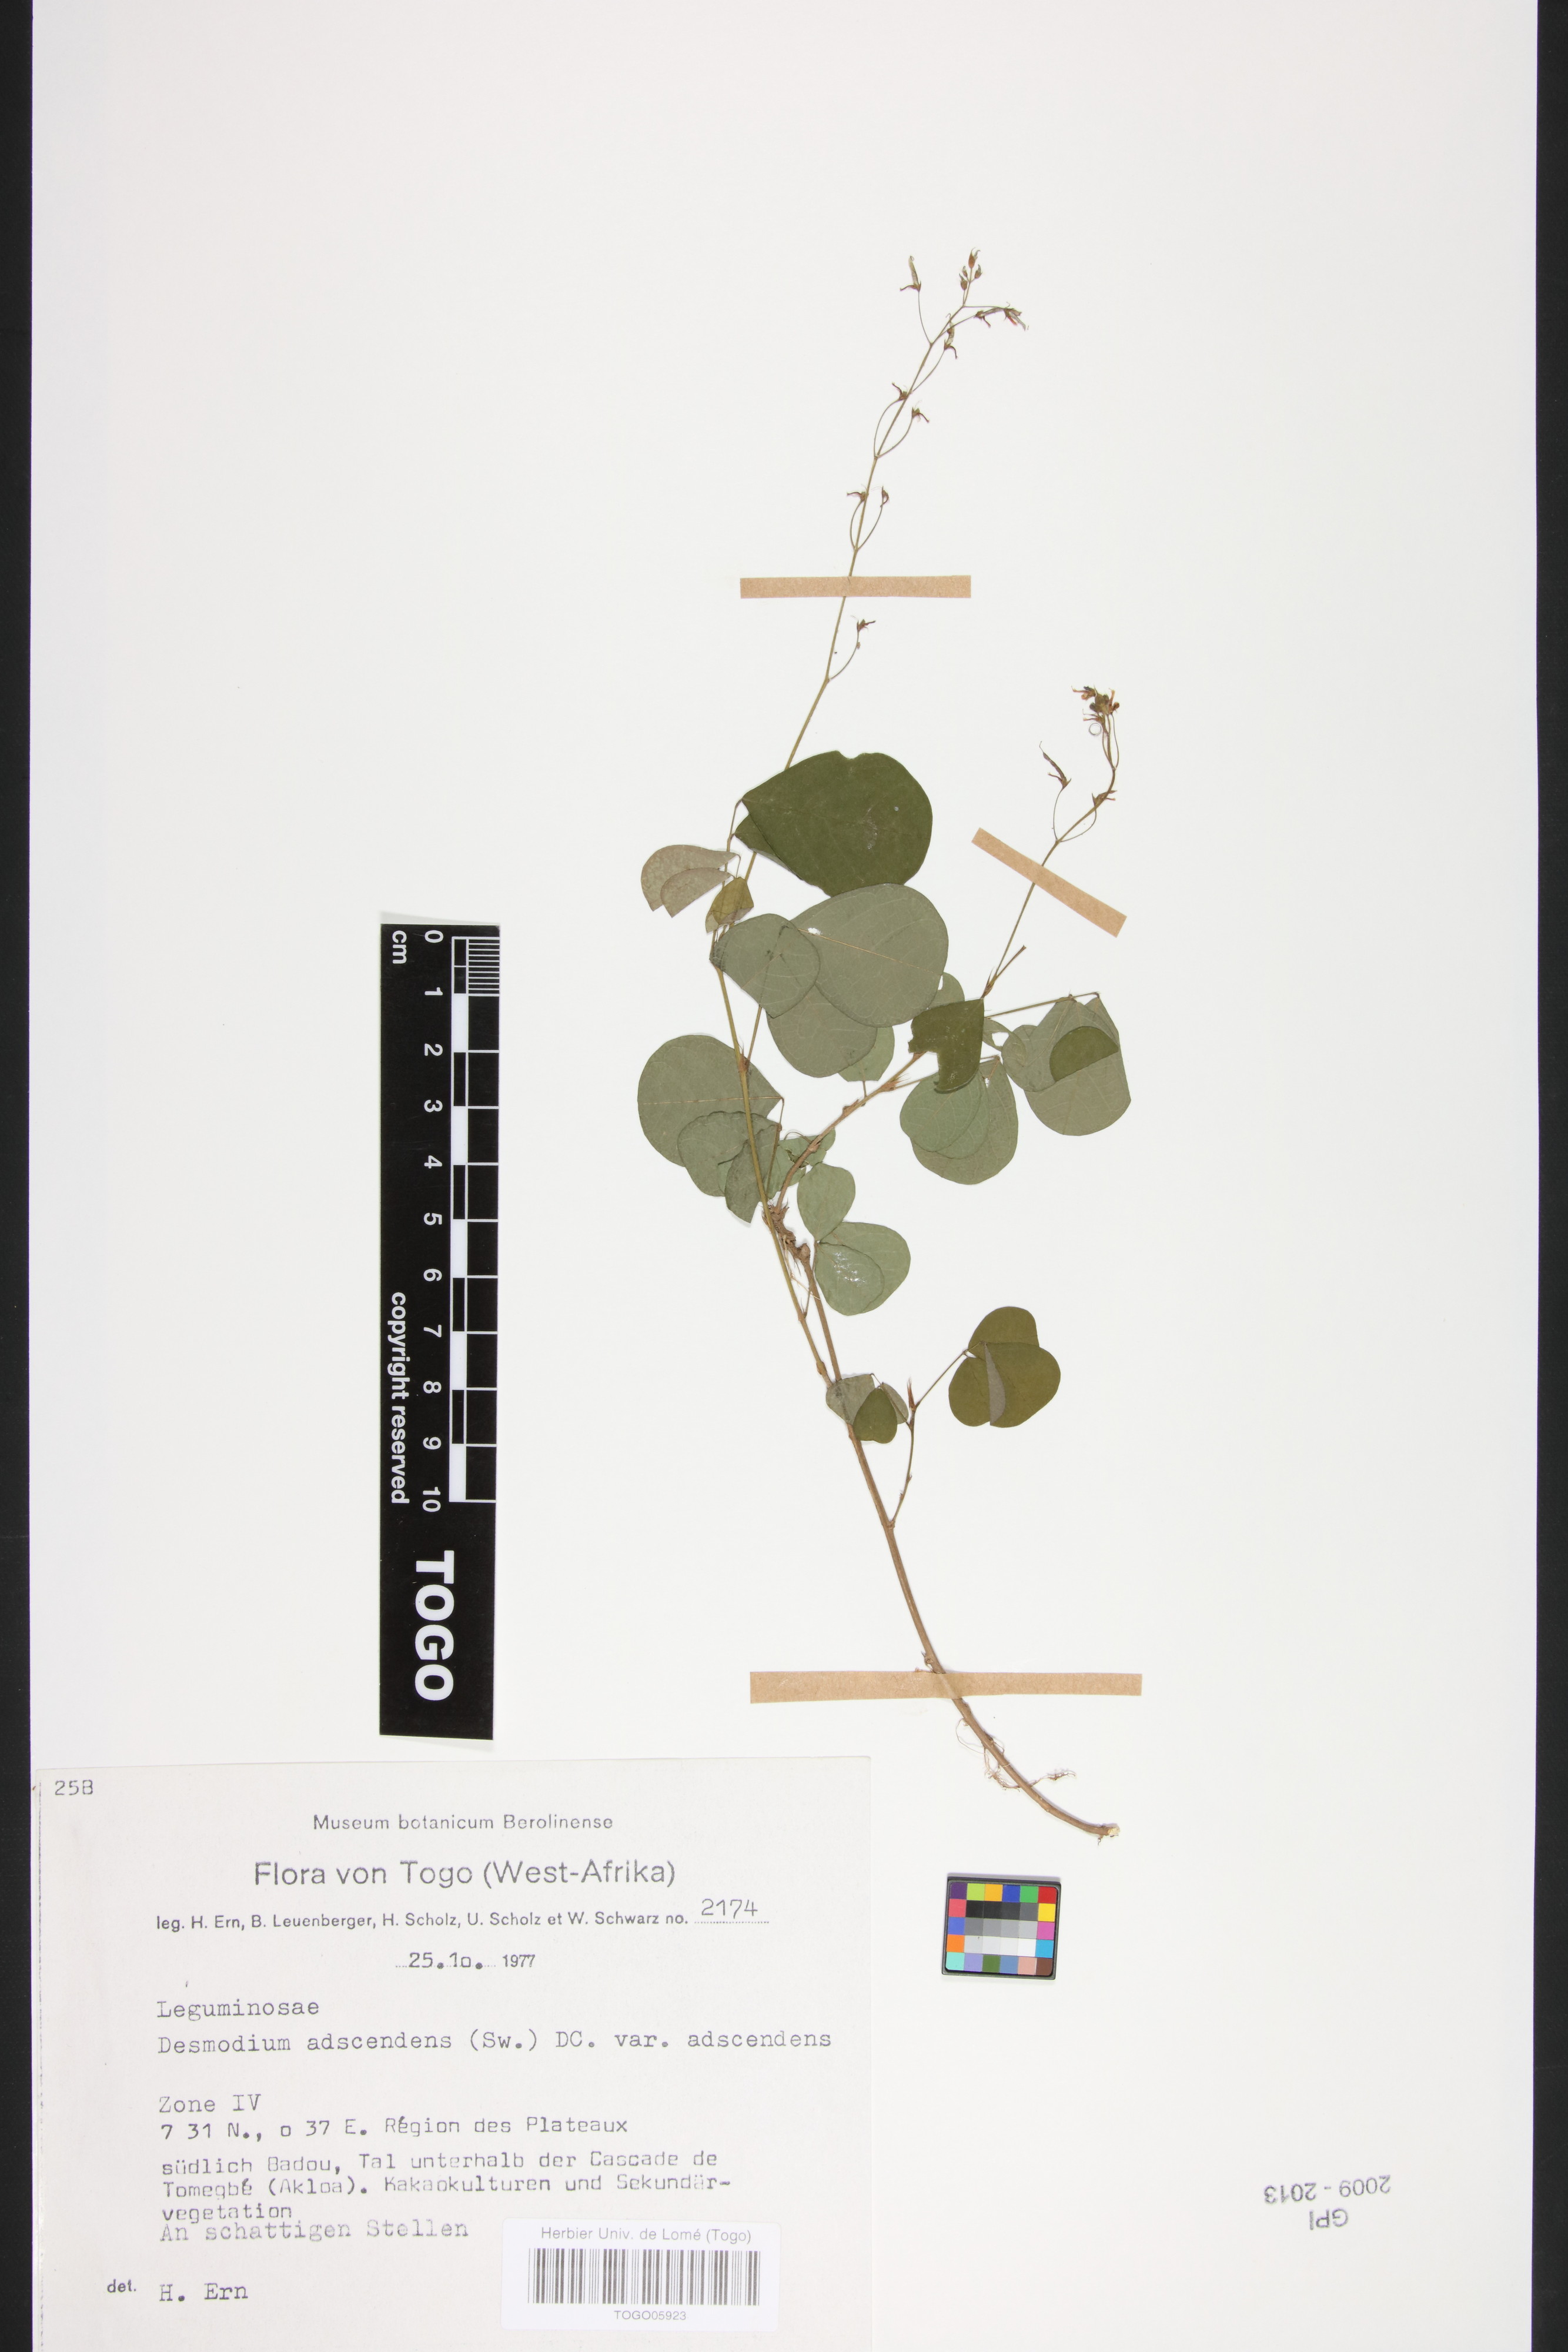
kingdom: Plantae
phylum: Tracheophyta
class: Magnoliopsida
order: Fabales
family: Fabaceae
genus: Grona
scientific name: Grona adscendens
